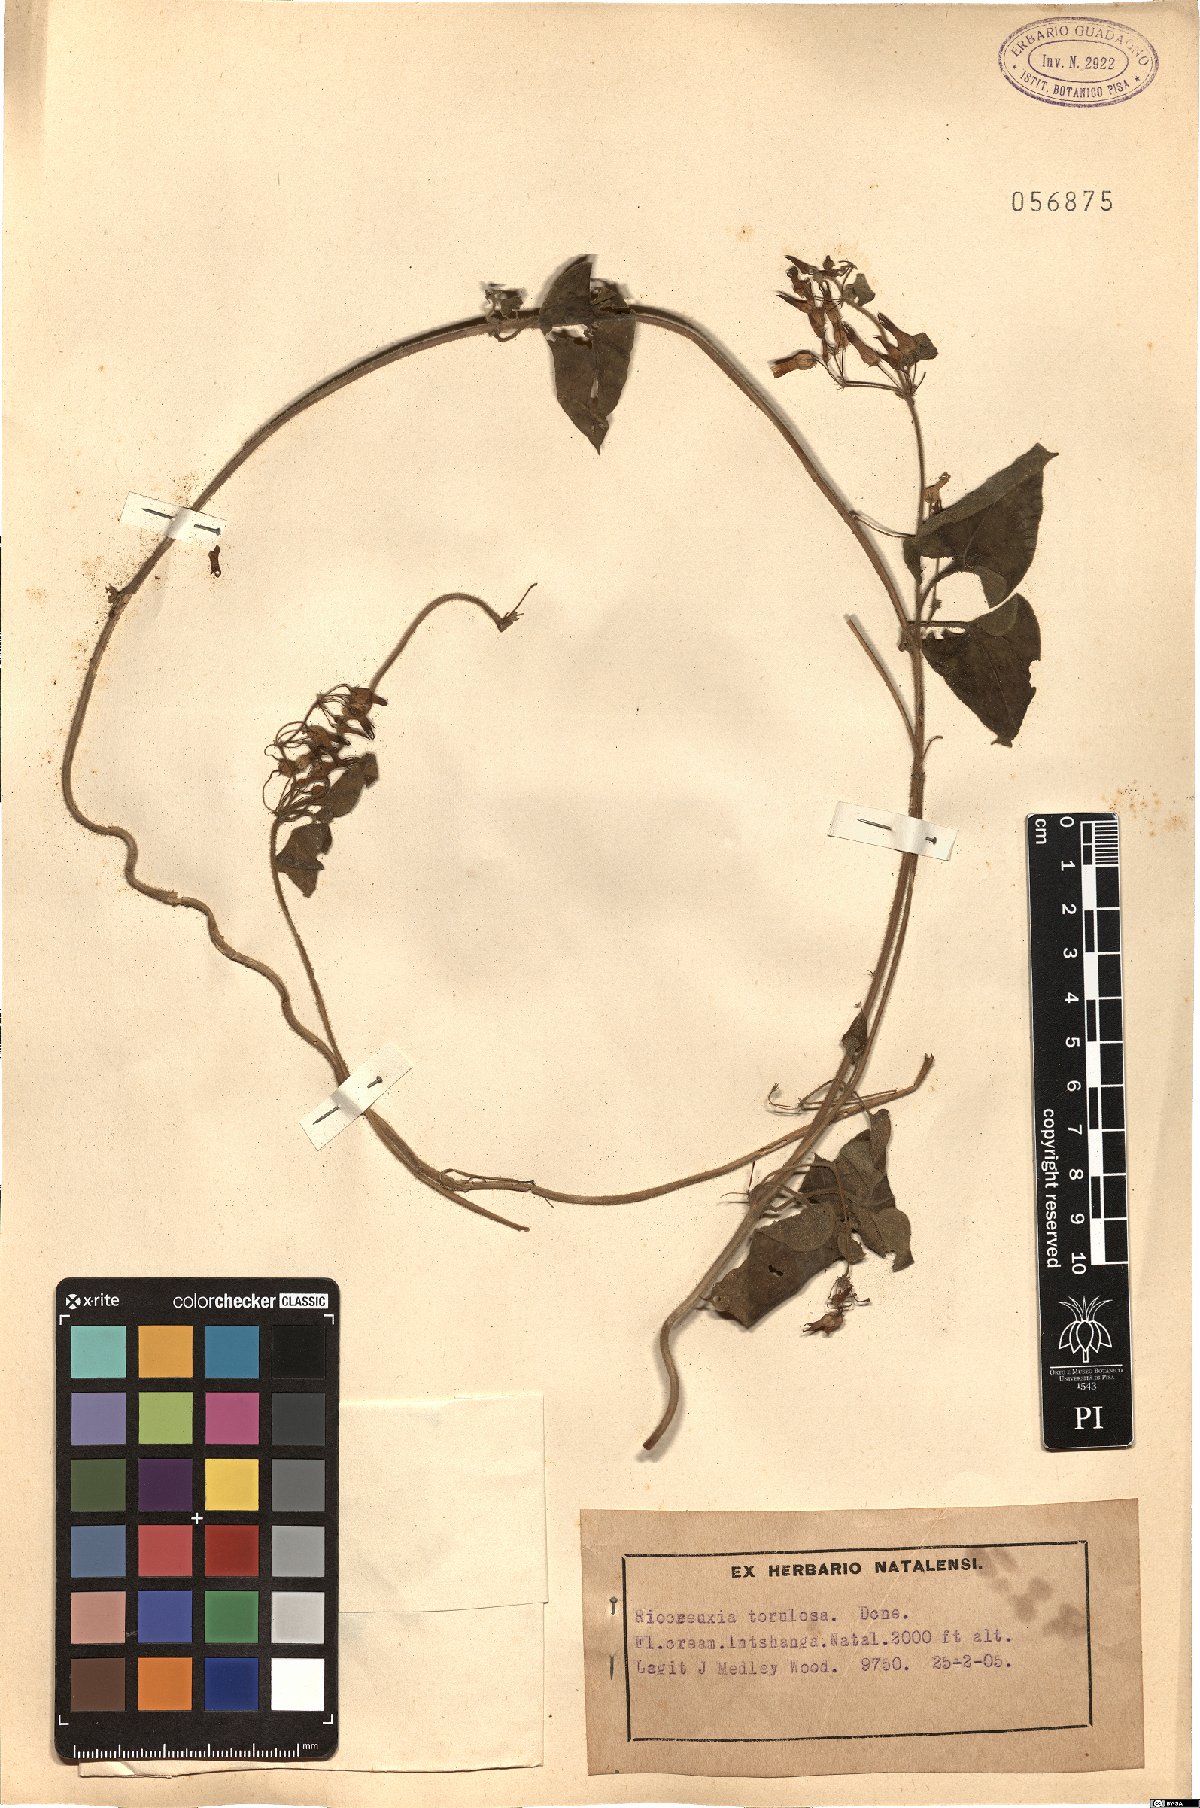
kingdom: Plantae
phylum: Tracheophyta
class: Magnoliopsida
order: Gentianales
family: Apocynaceae
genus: Riocreuxia
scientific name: Riocreuxia torulosa
